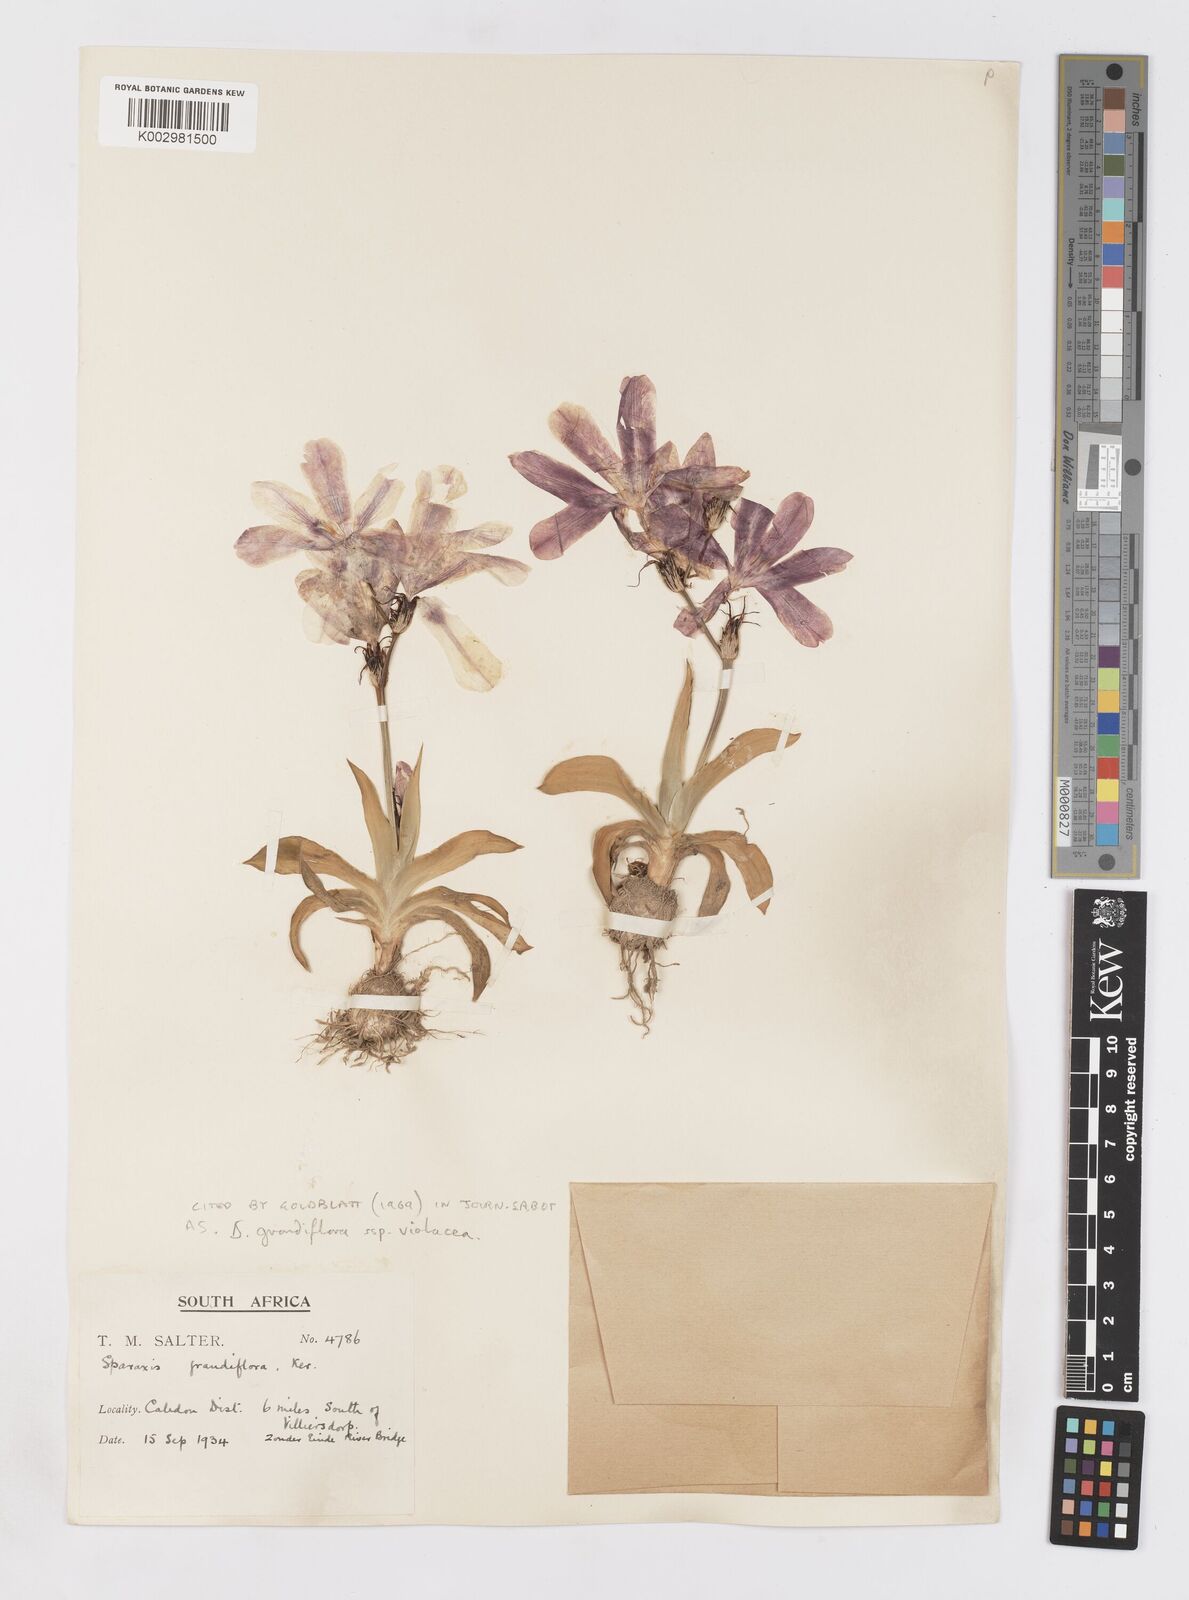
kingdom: Plantae
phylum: Tracheophyta
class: Liliopsida
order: Asparagales
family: Iridaceae
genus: Sparaxis
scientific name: Sparaxis grandiflora
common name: Plain harlequin-flower
